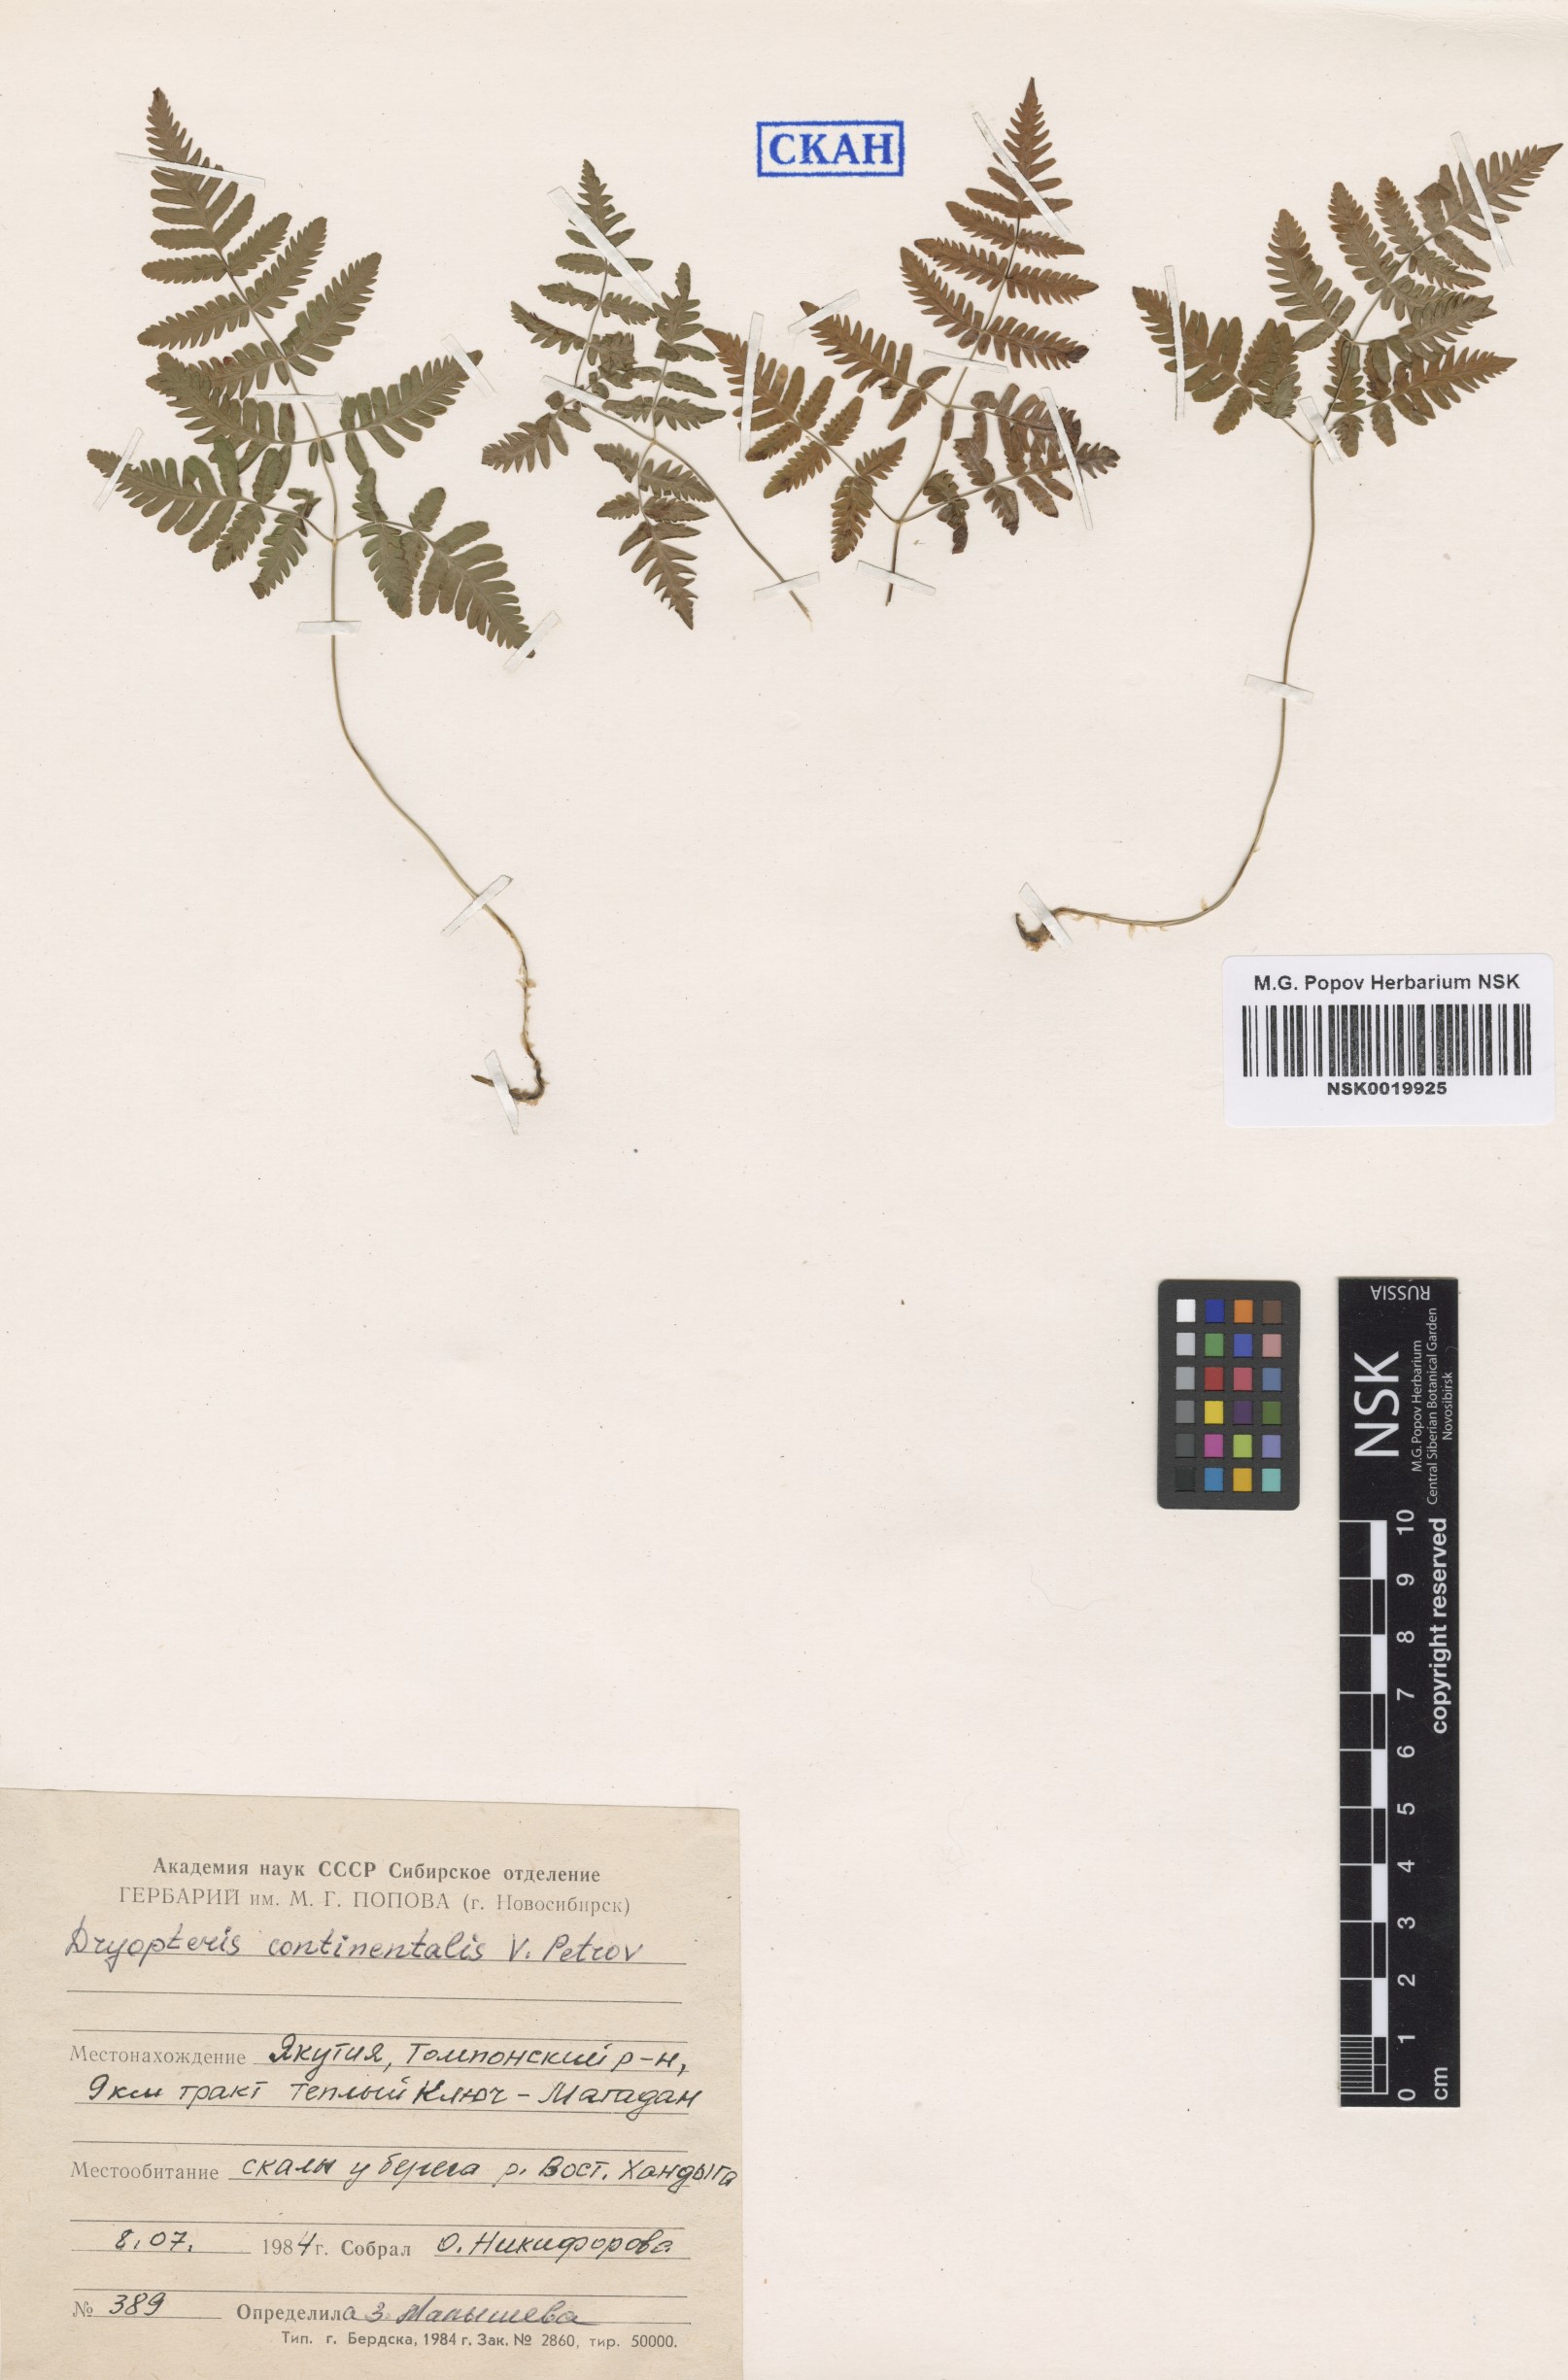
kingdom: Plantae
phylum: Tracheophyta
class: Polypodiopsida
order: Polypodiales
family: Cystopteridaceae
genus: Gymnocarpium
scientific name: Gymnocarpium continentale
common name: Asian oak fern
